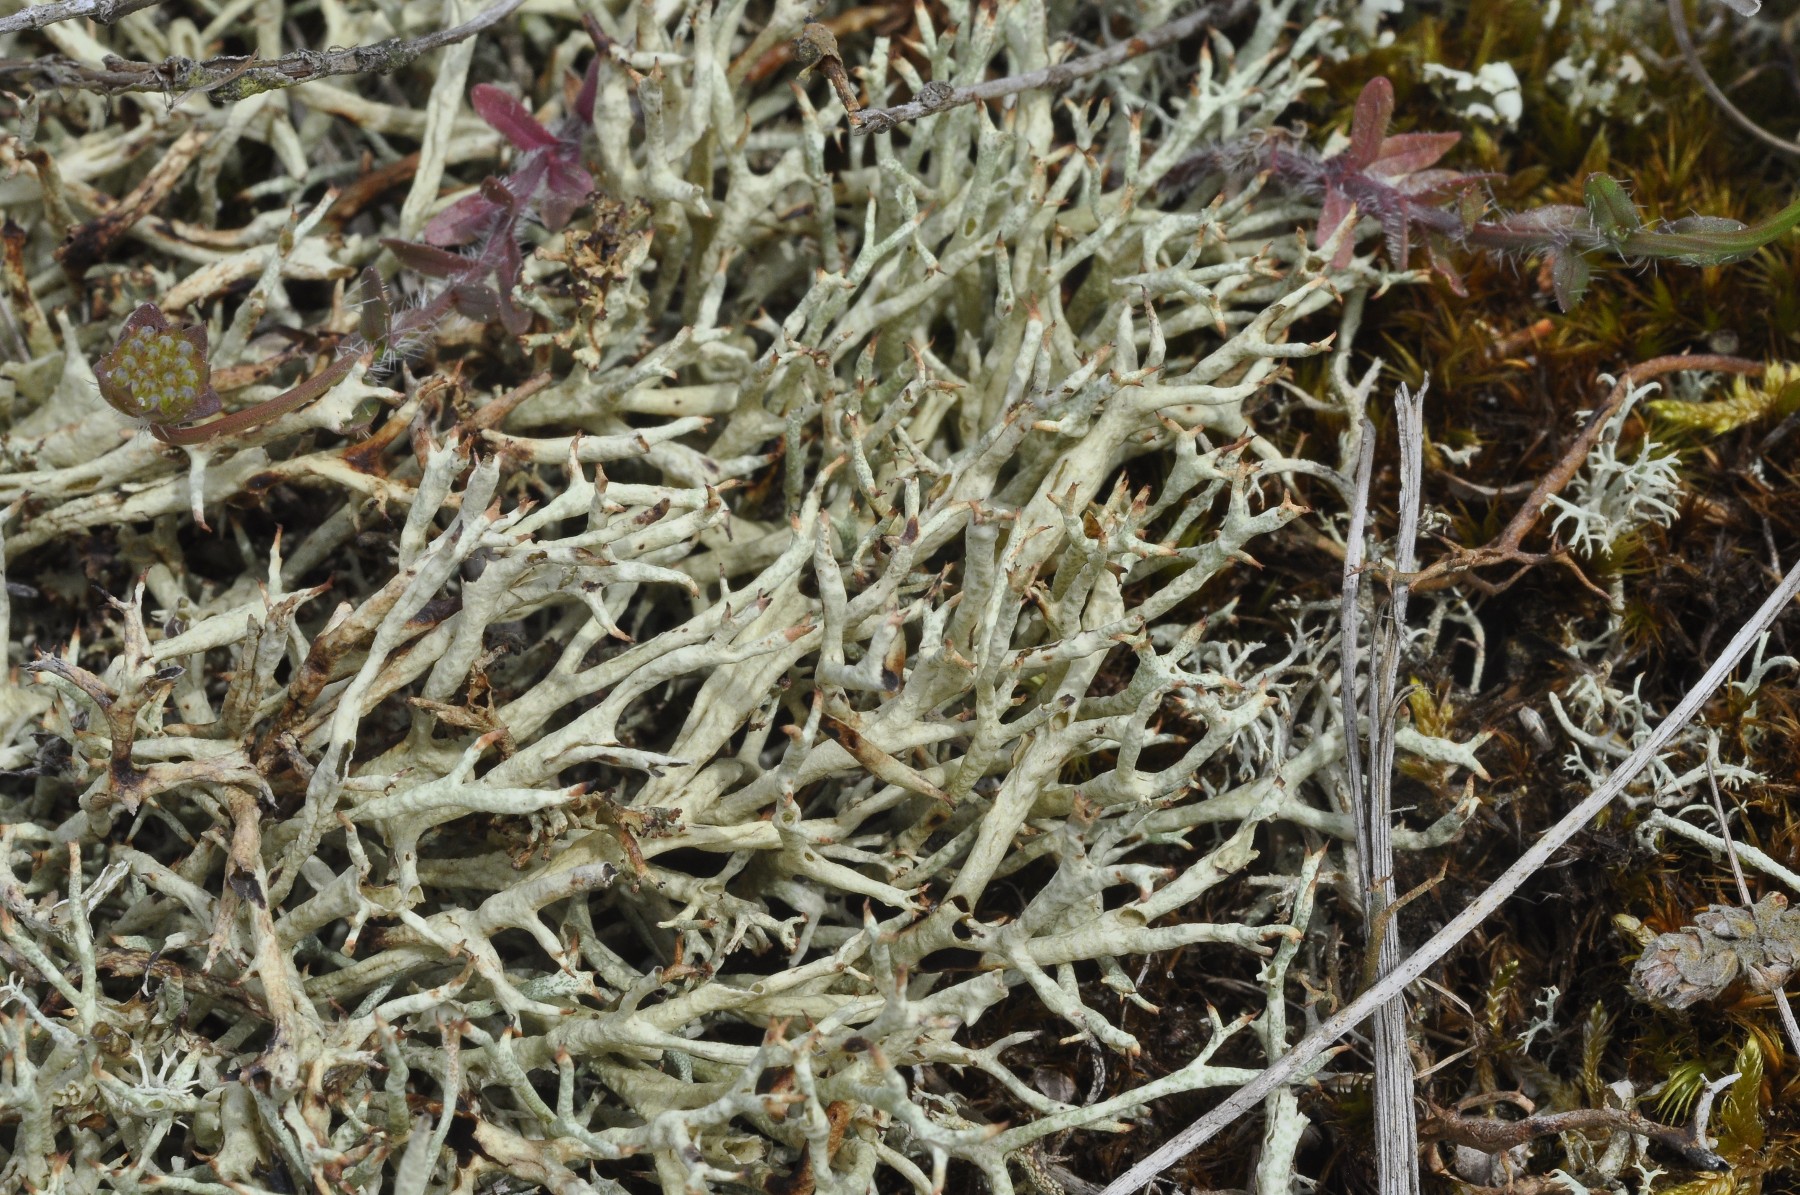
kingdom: Fungi
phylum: Ascomycota
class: Lecanoromycetes
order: Lecanorales
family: Cladoniaceae
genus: Cladonia
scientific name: Cladonia uncialis
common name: pigget bægerlav
